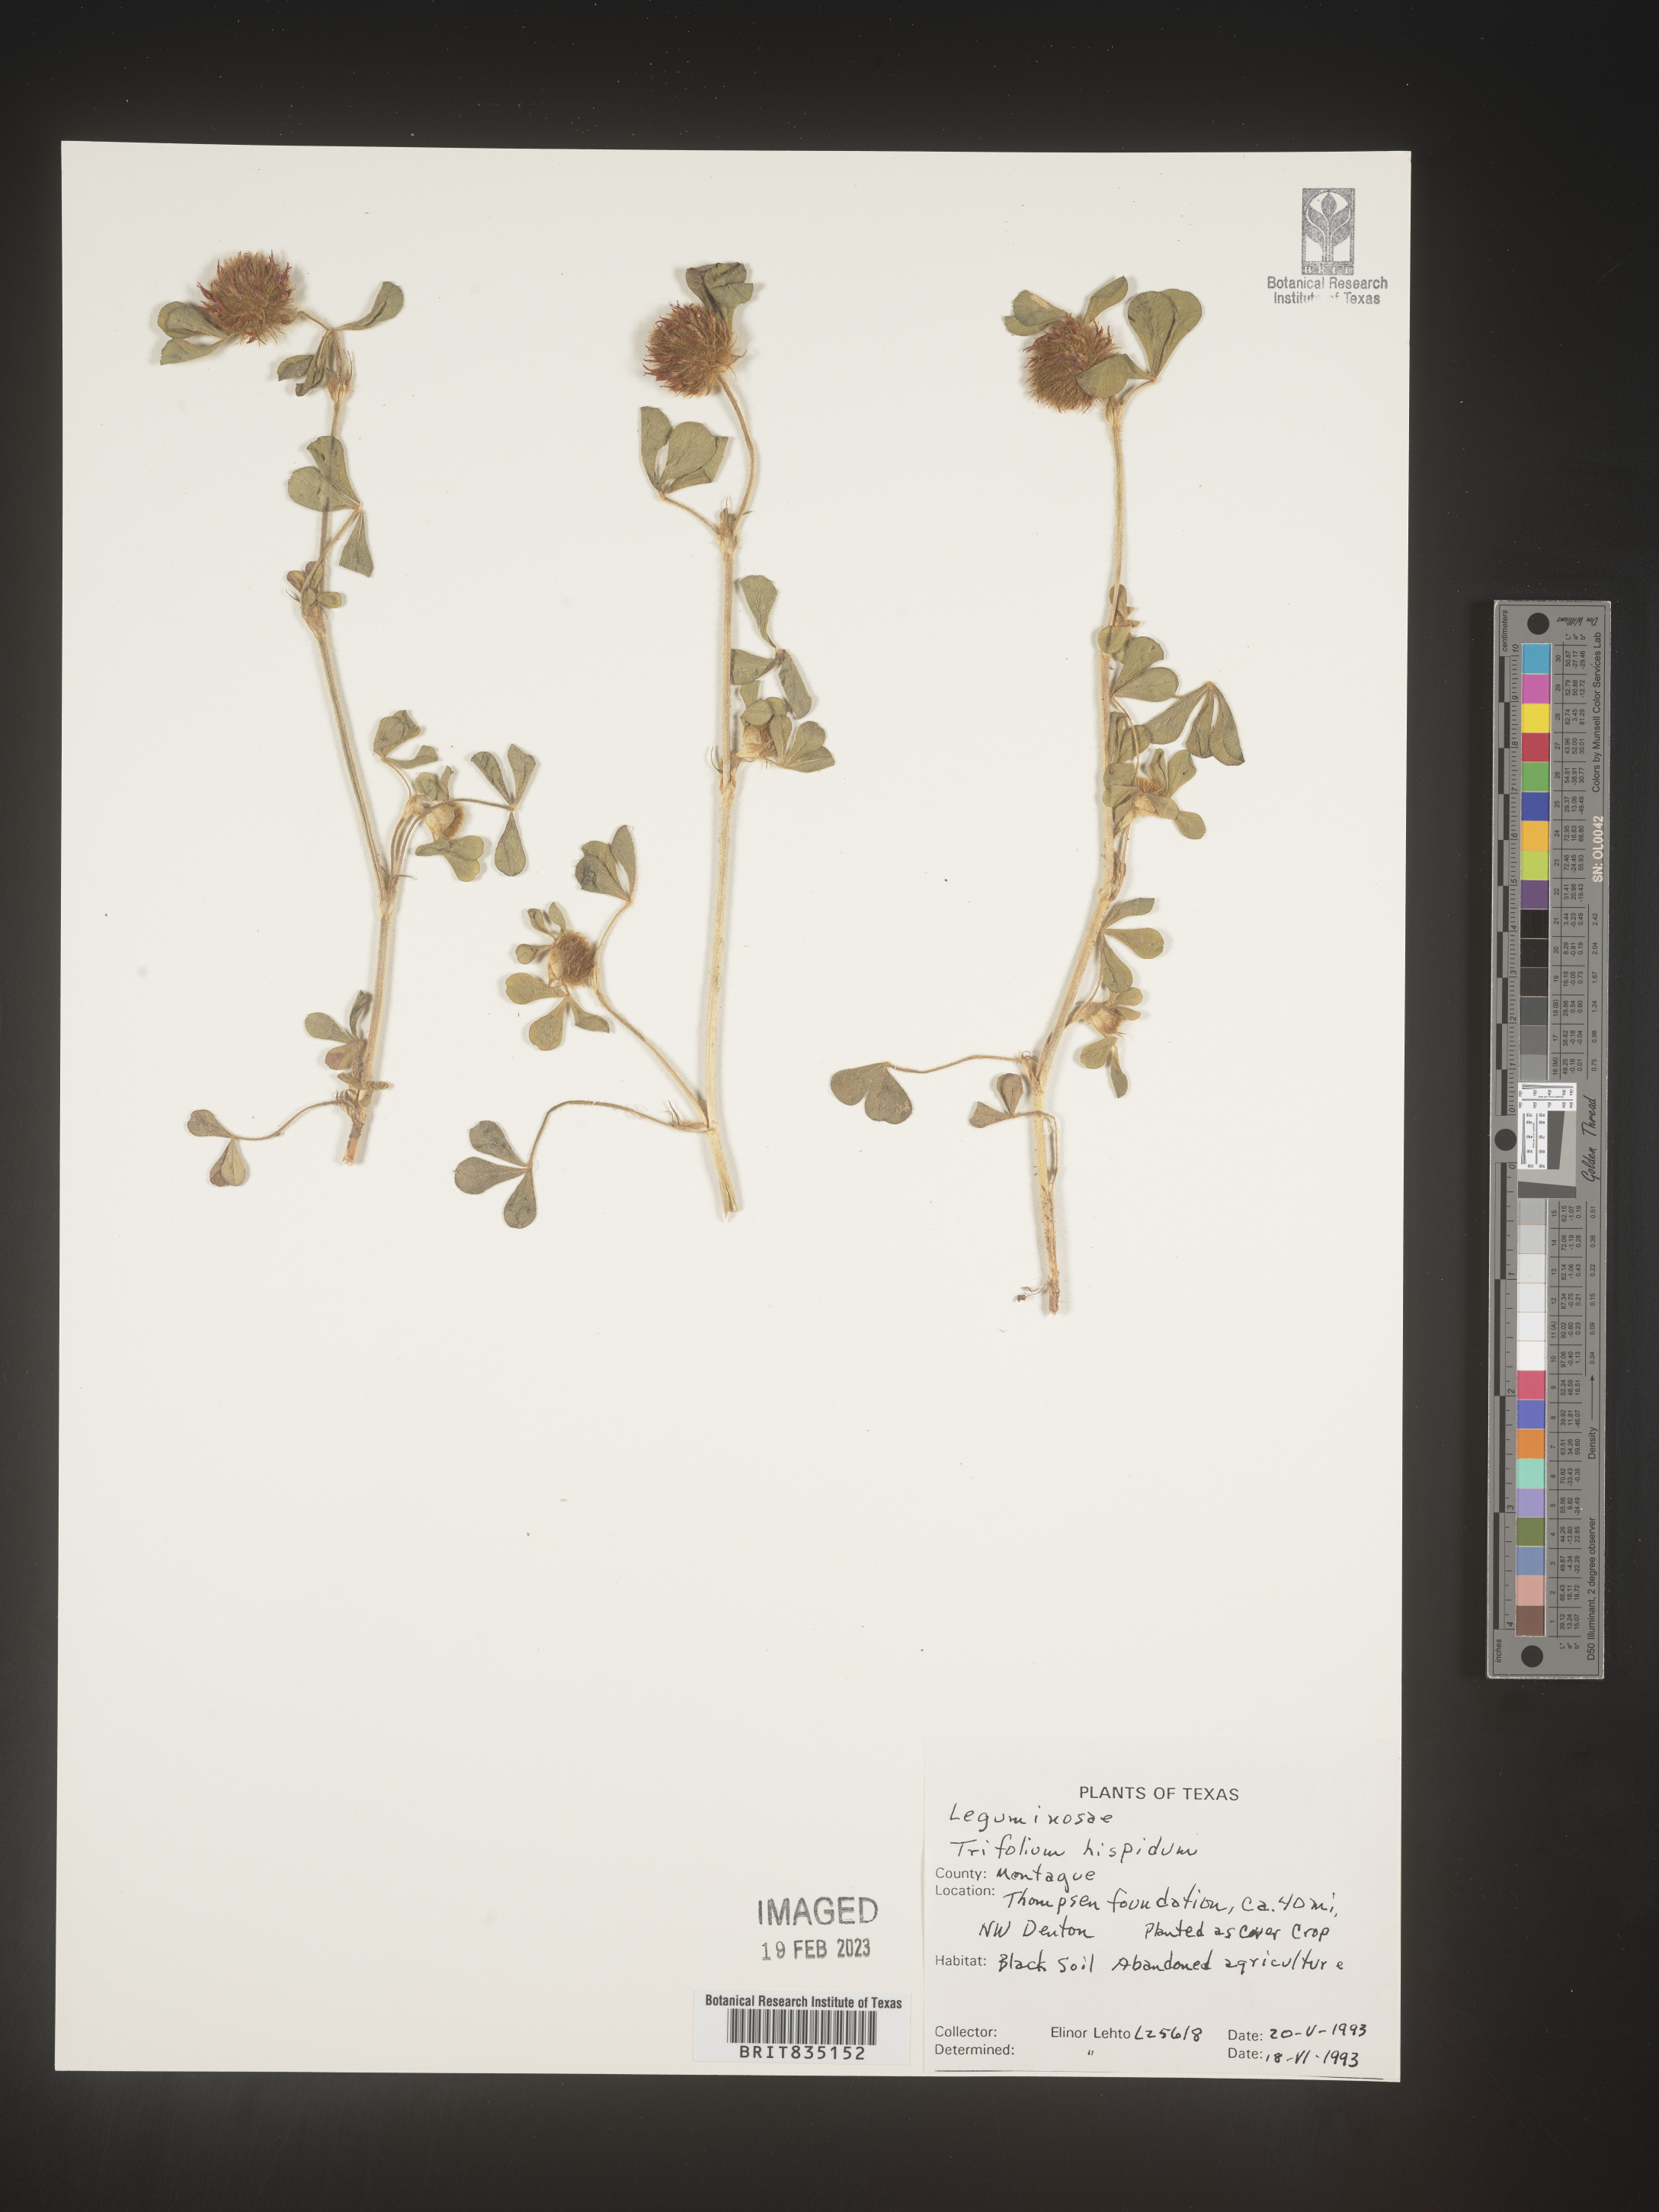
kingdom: Plantae
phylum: Tracheophyta
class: Magnoliopsida
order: Fabales
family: Fabaceae
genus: Trigonella
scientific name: Trigonella
